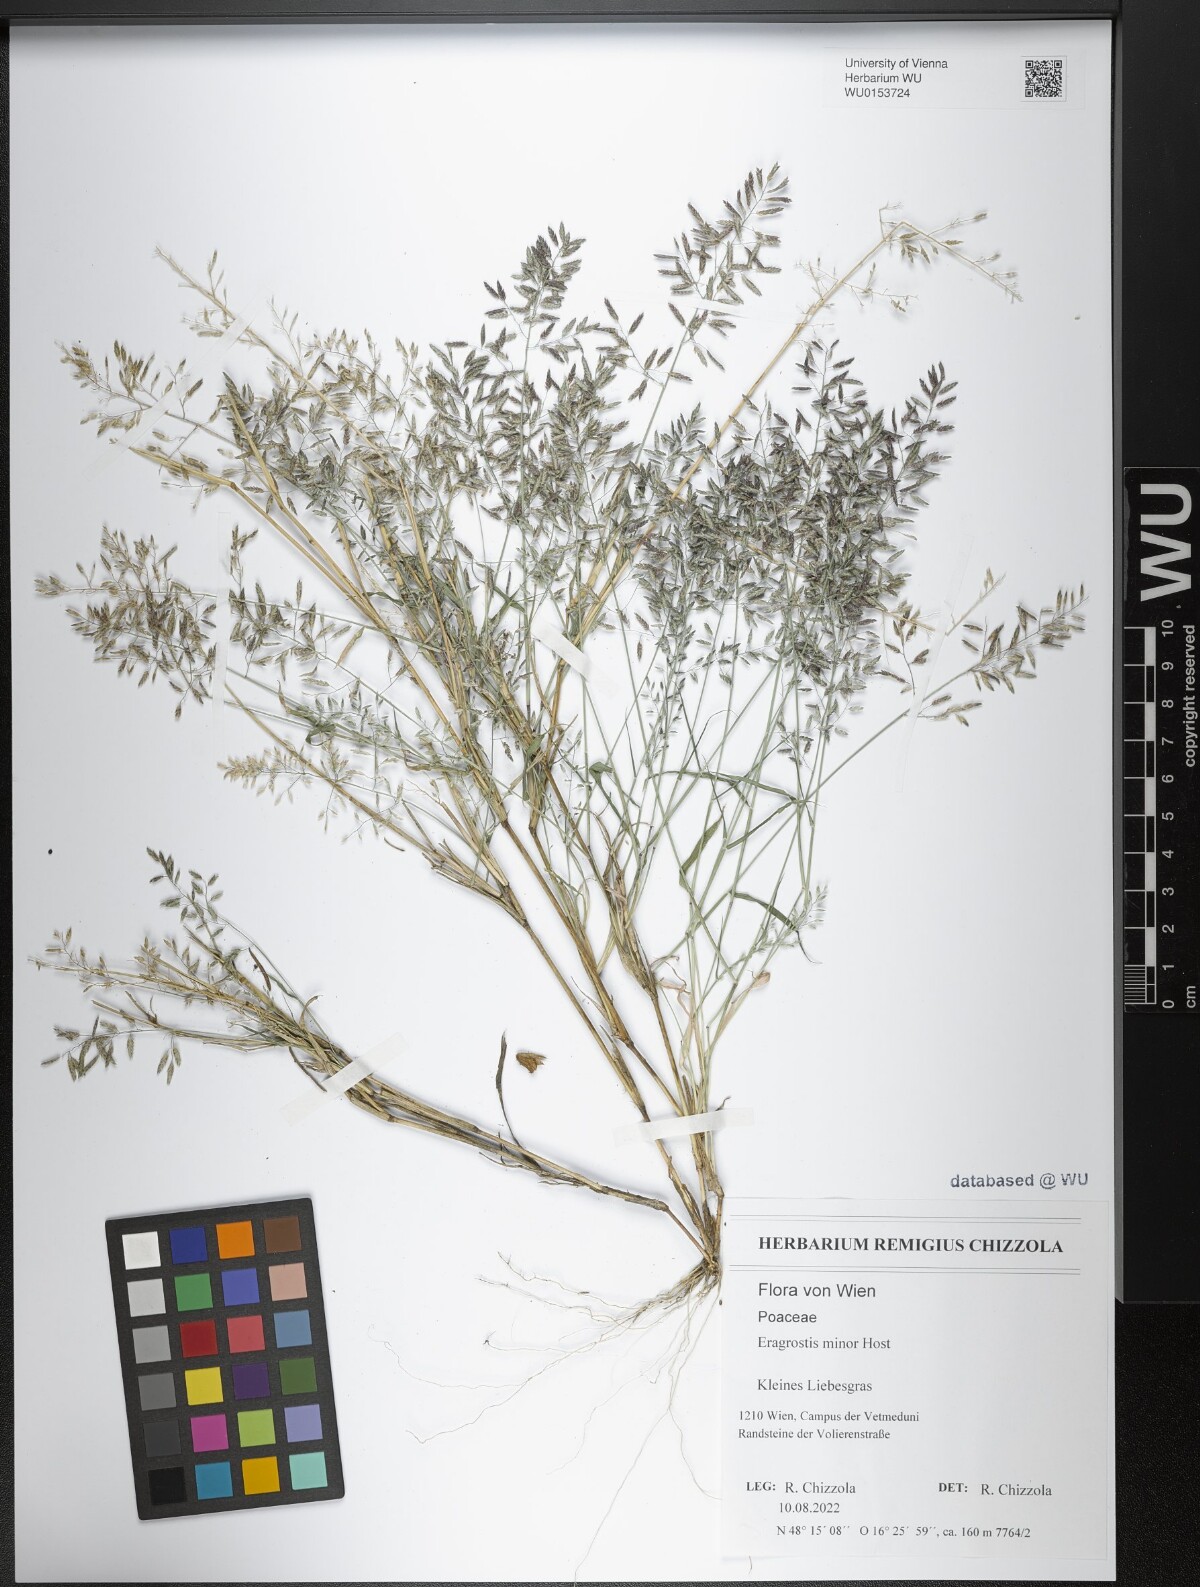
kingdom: Plantae
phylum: Tracheophyta
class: Liliopsida
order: Poales
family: Poaceae
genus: Eragrostis
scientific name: Eragrostis minor
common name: Small love-grass
